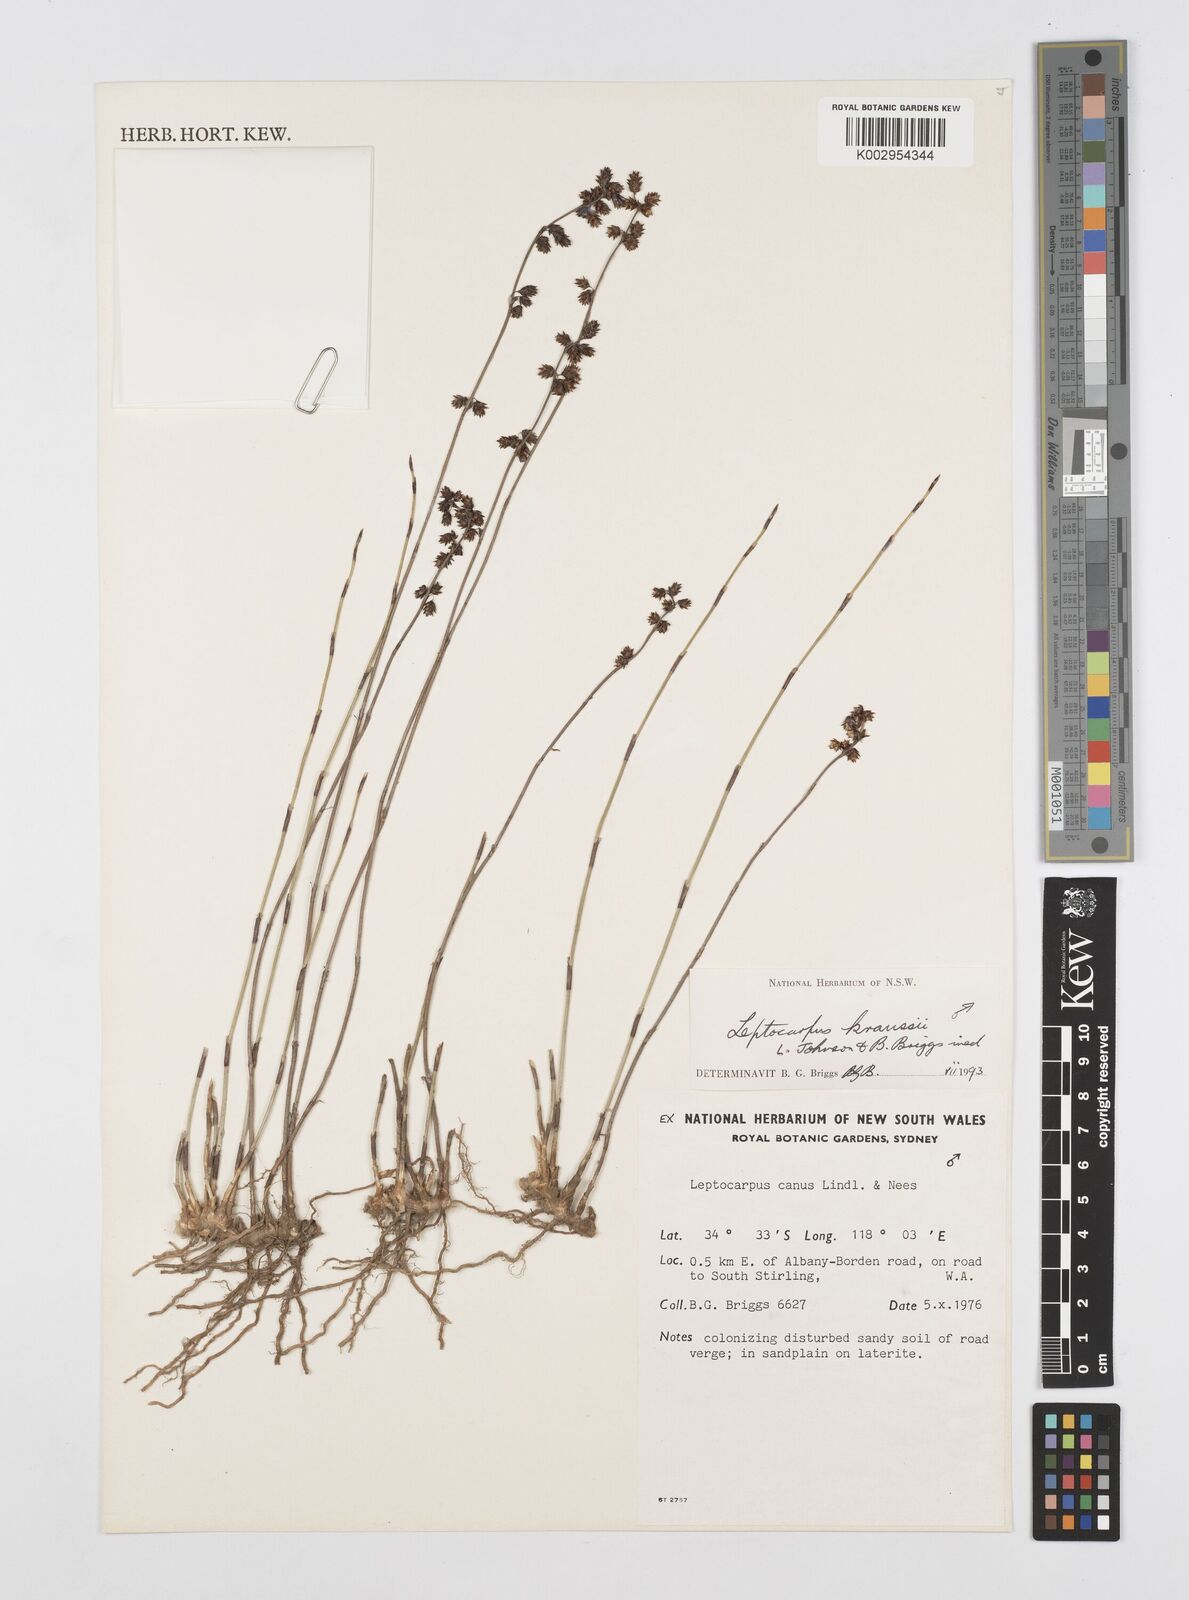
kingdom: Plantae
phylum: Tracheophyta
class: Liliopsida
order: Poales
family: Restionaceae
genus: Leptocarpus
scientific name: Leptocarpus kraussii
